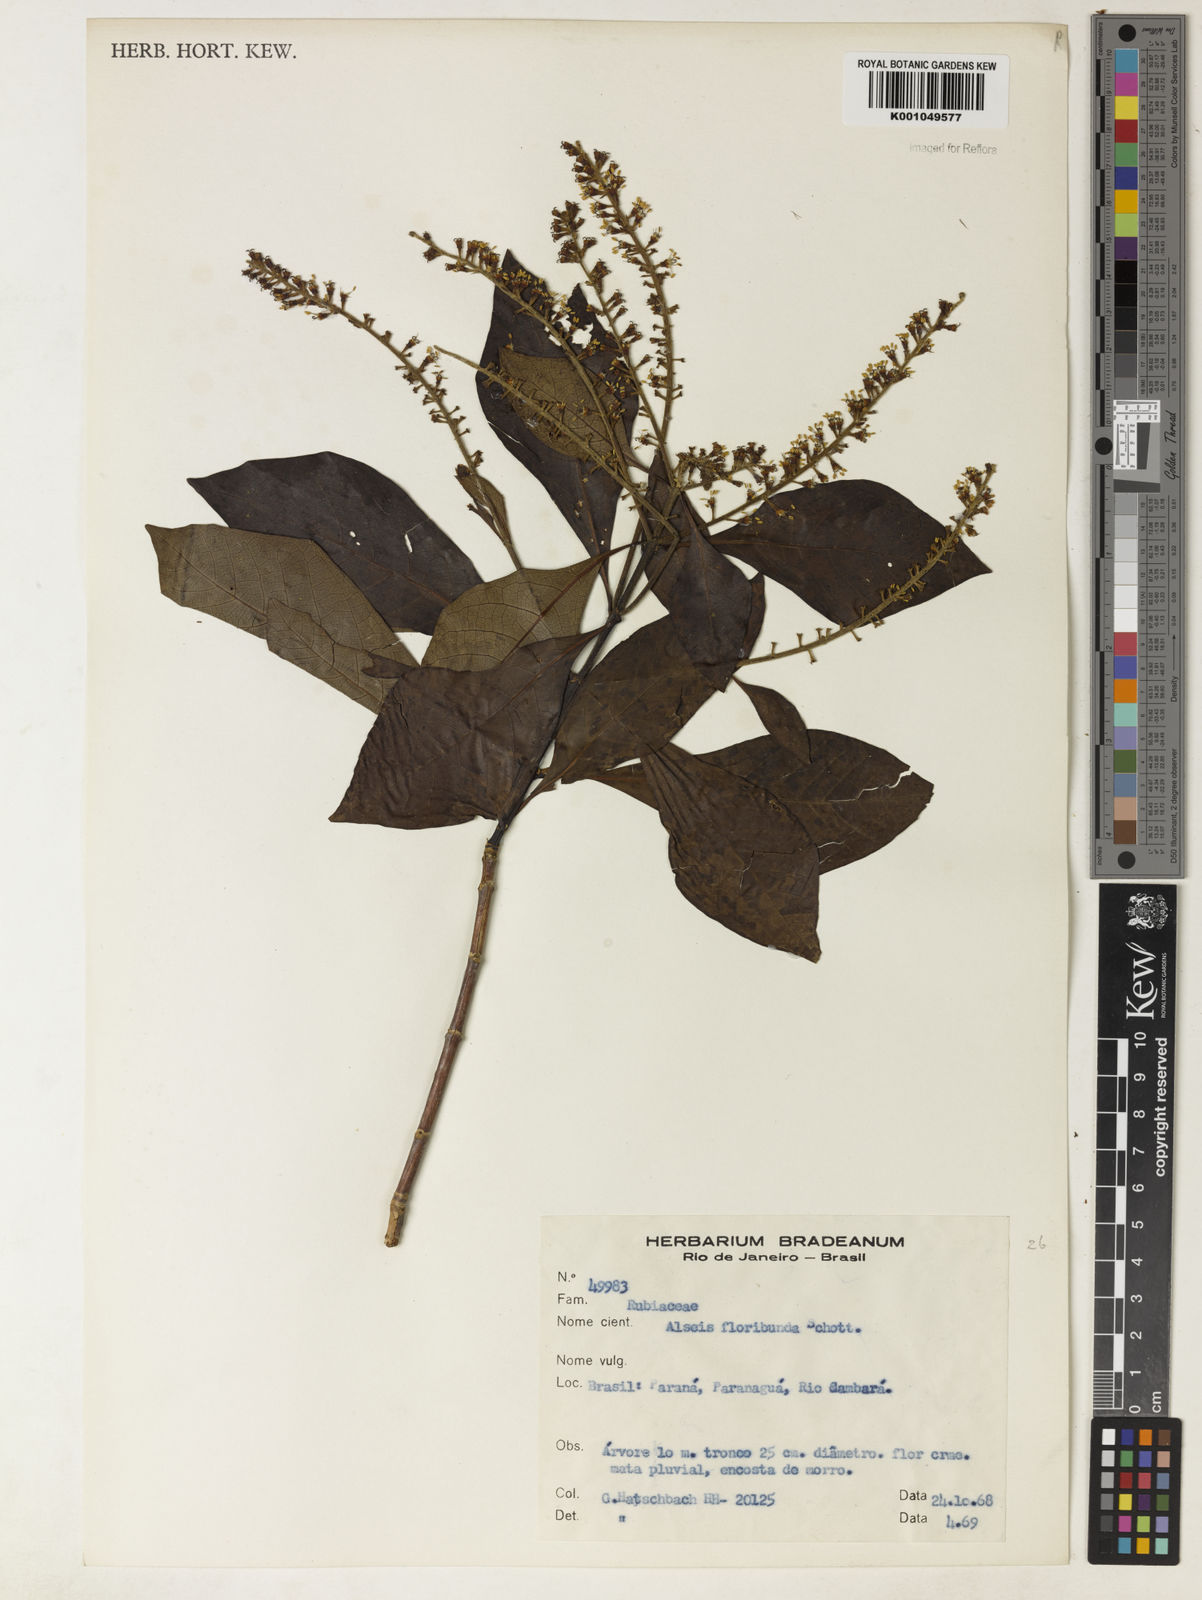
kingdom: Plantae
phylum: Tracheophyta
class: Magnoliopsida
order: Gentianales
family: Rubiaceae
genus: Alseis
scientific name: Alseis floribunda
